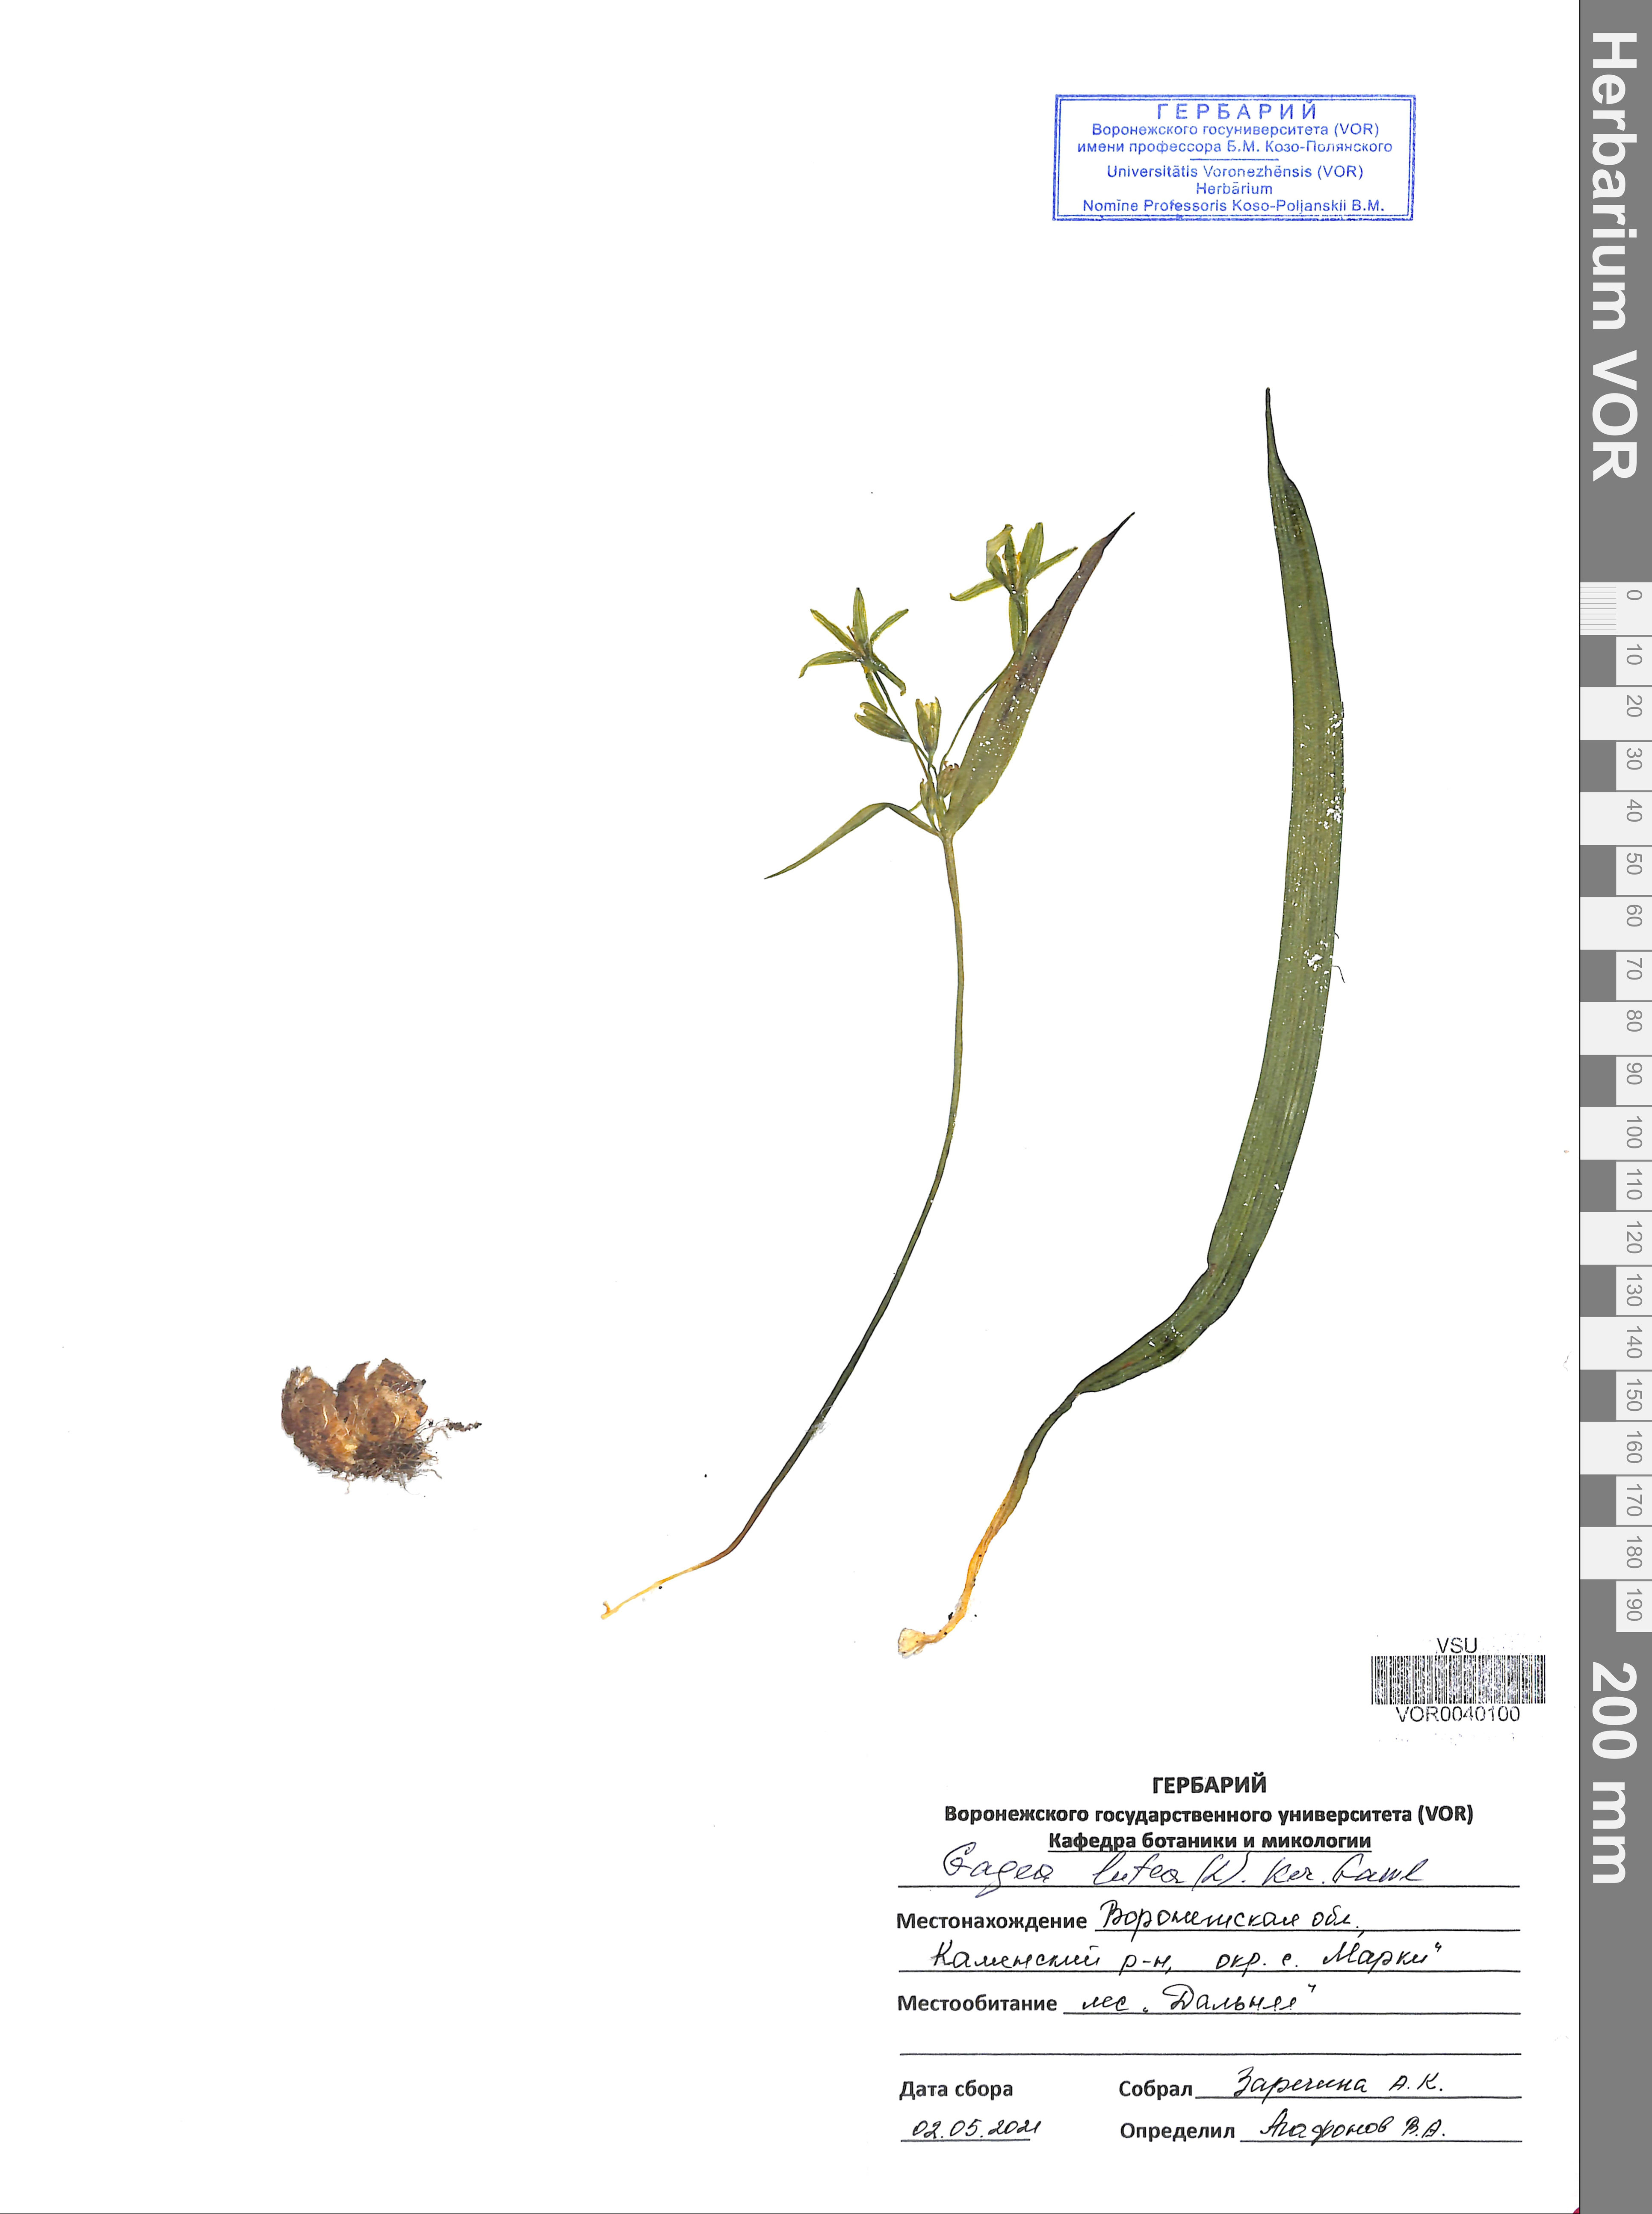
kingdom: Plantae
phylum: Tracheophyta
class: Liliopsida
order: Liliales
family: Liliaceae
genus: Gagea
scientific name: Gagea lutea
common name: Yellow star-of-bethlehem
